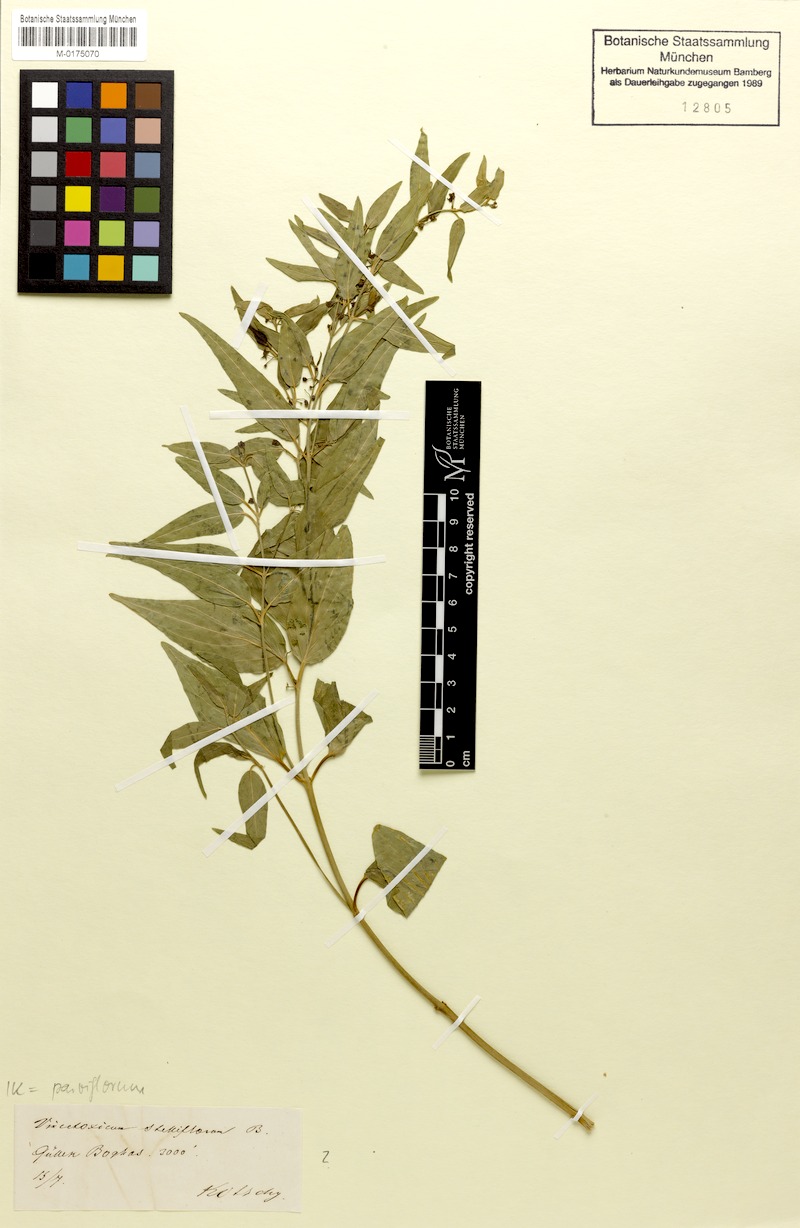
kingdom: Plantae
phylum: Tracheophyta
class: Magnoliopsida
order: Gentianales
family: Apocynaceae
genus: Vincetoxicum
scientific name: Vincetoxicum parviflorum
